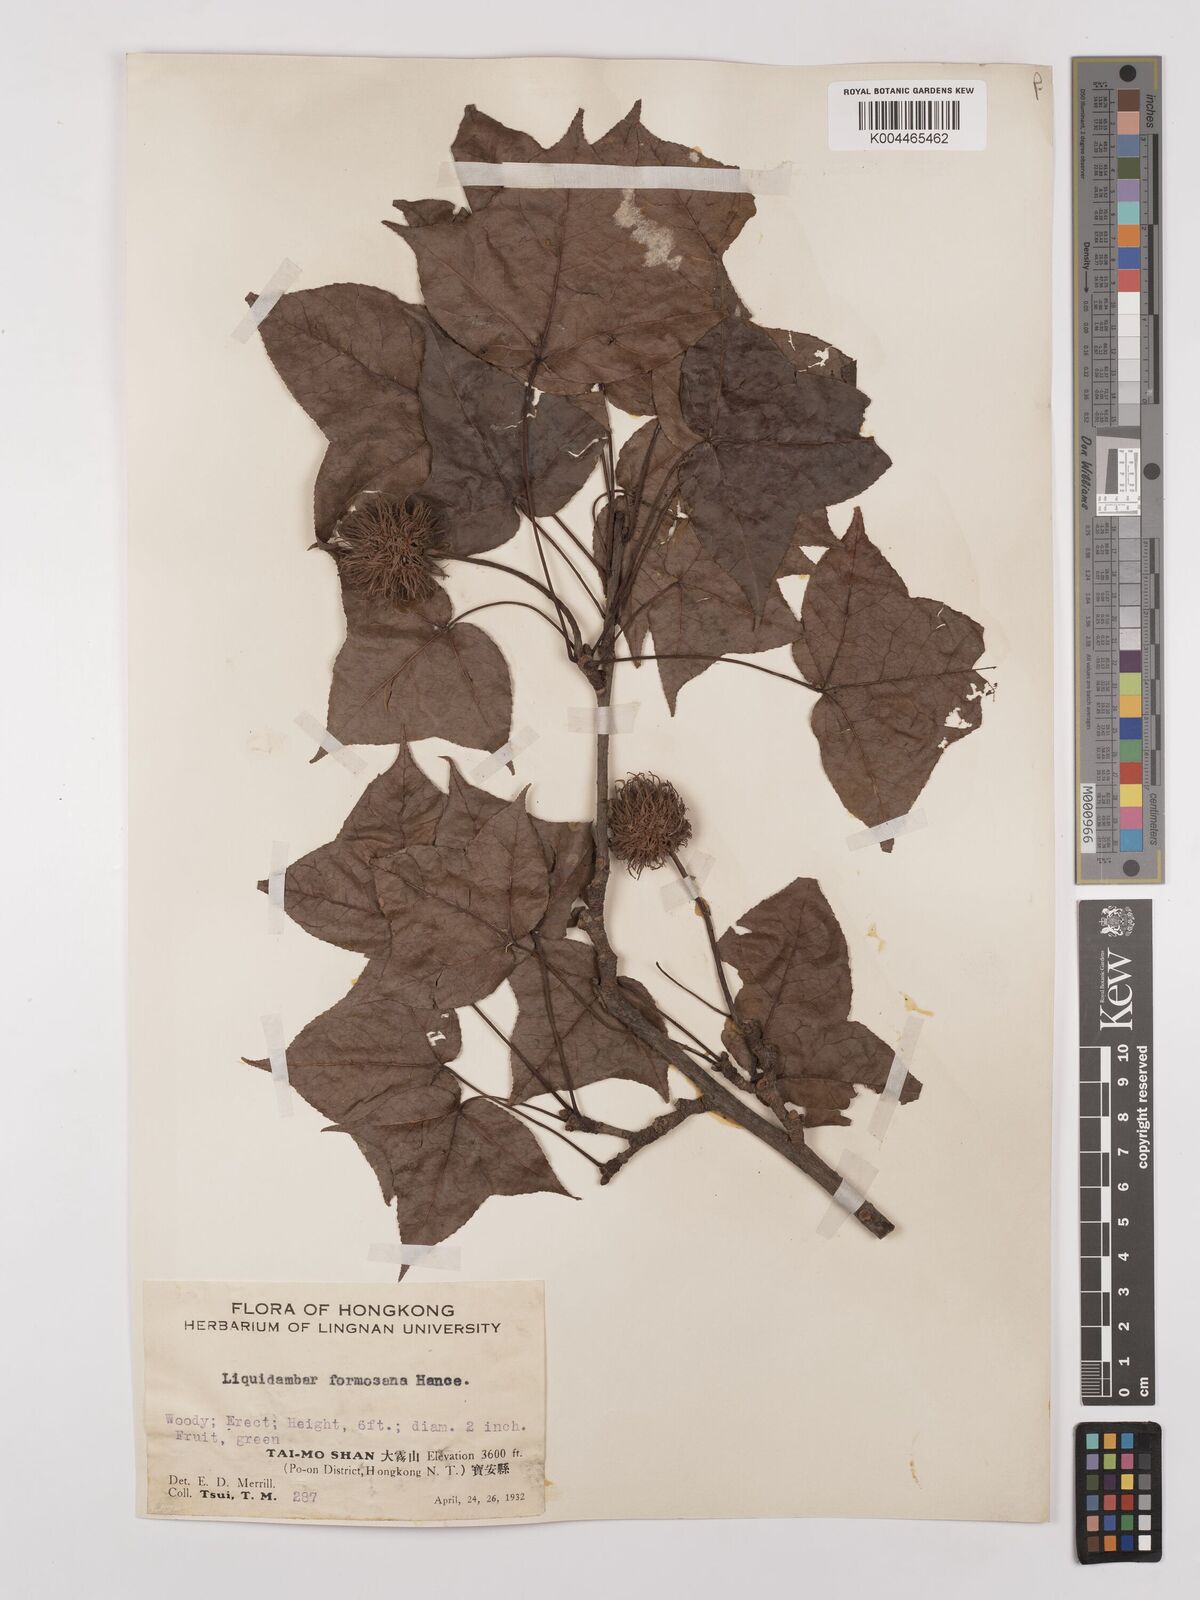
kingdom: Plantae
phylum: Tracheophyta
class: Magnoliopsida
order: Saxifragales
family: Altingiaceae
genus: Liquidambar
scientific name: Liquidambar formosana
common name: Chinese sweet gum
